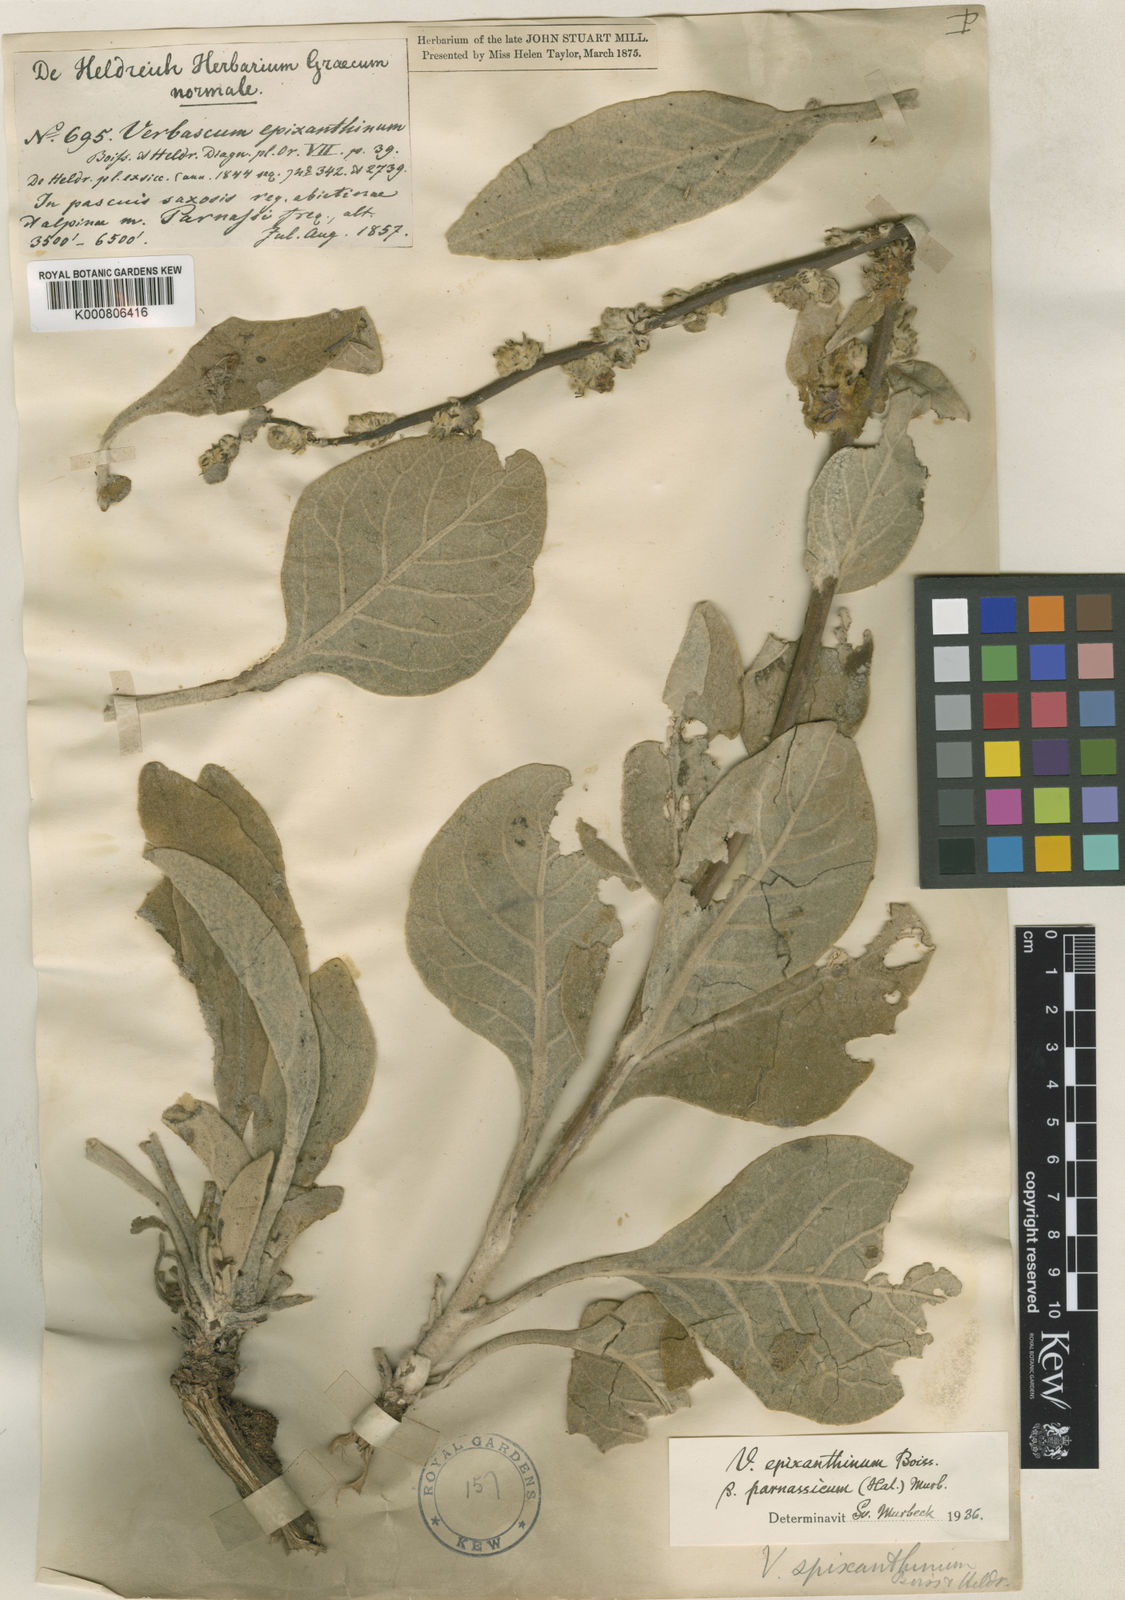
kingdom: Plantae
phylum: Tracheophyta
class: Magnoliopsida
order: Lamiales
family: Scrophulariaceae
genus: Verbascum
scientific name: Verbascum epixanthinum
